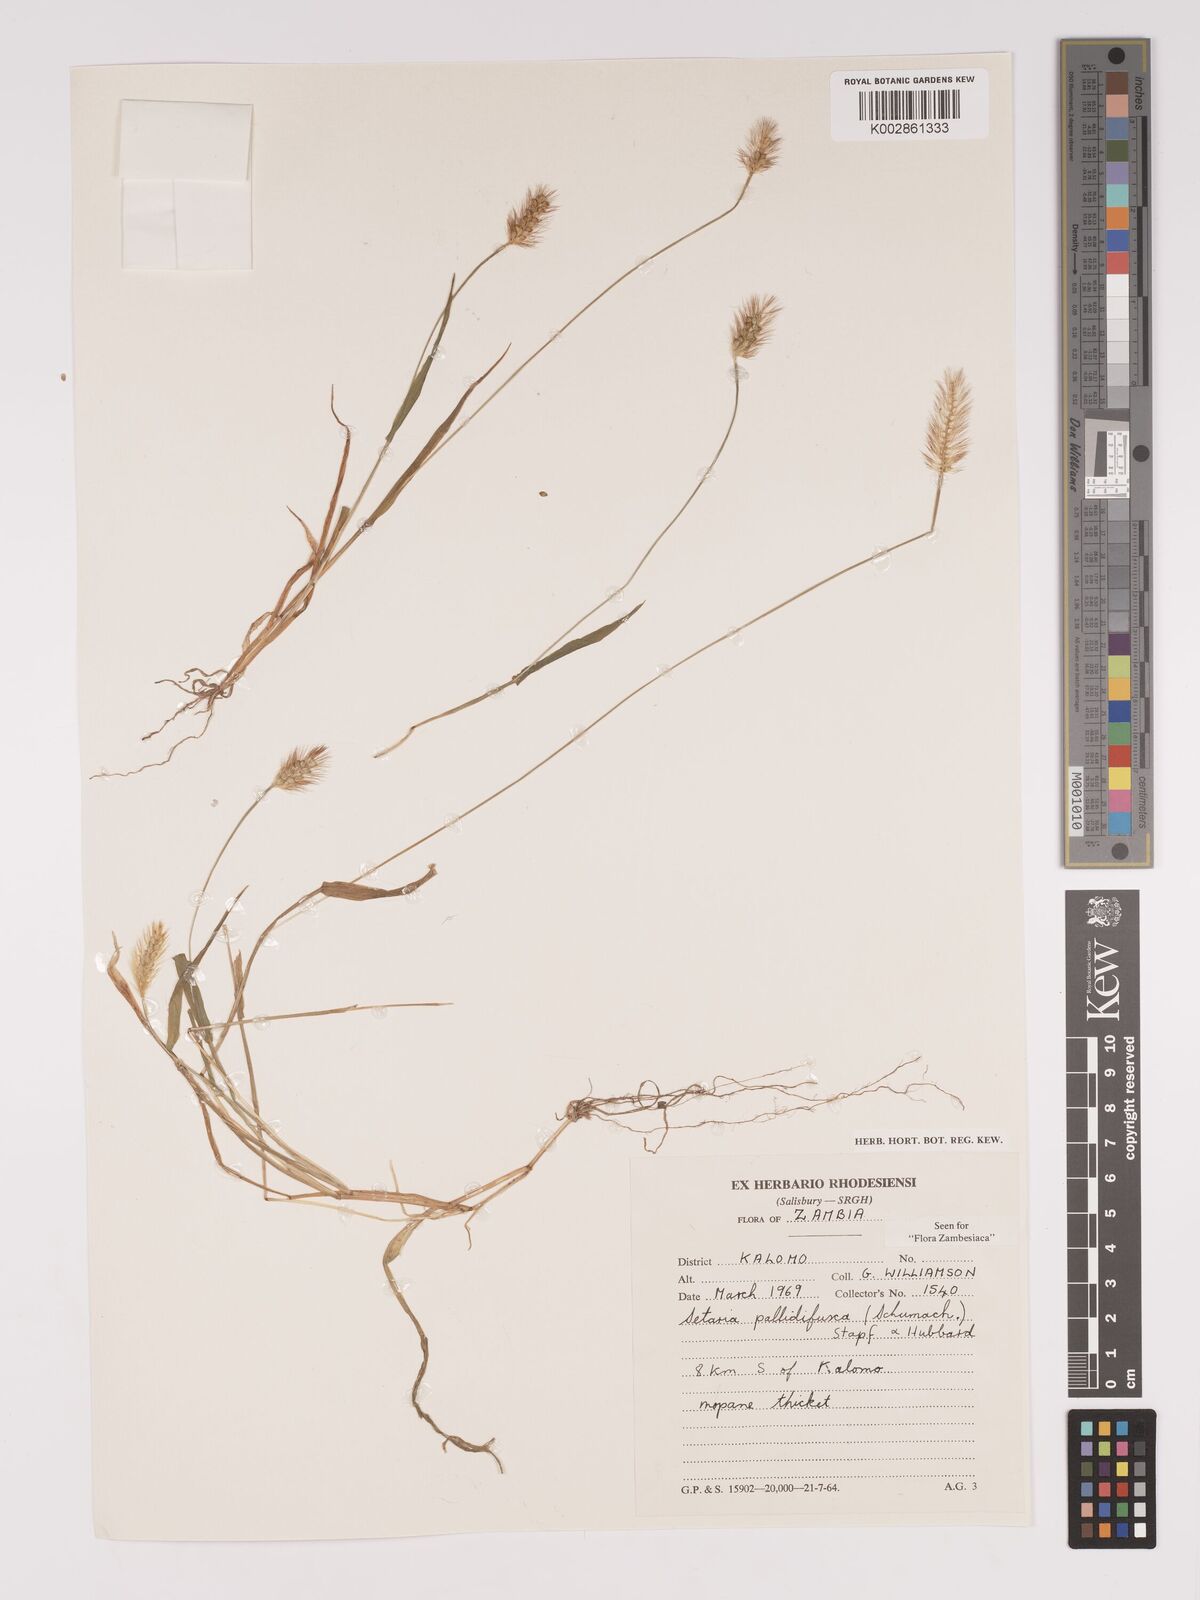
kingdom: Plantae
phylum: Tracheophyta
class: Liliopsida
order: Poales
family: Poaceae
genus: Setaria
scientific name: Setaria pumila
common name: Yellow bristle-grass
